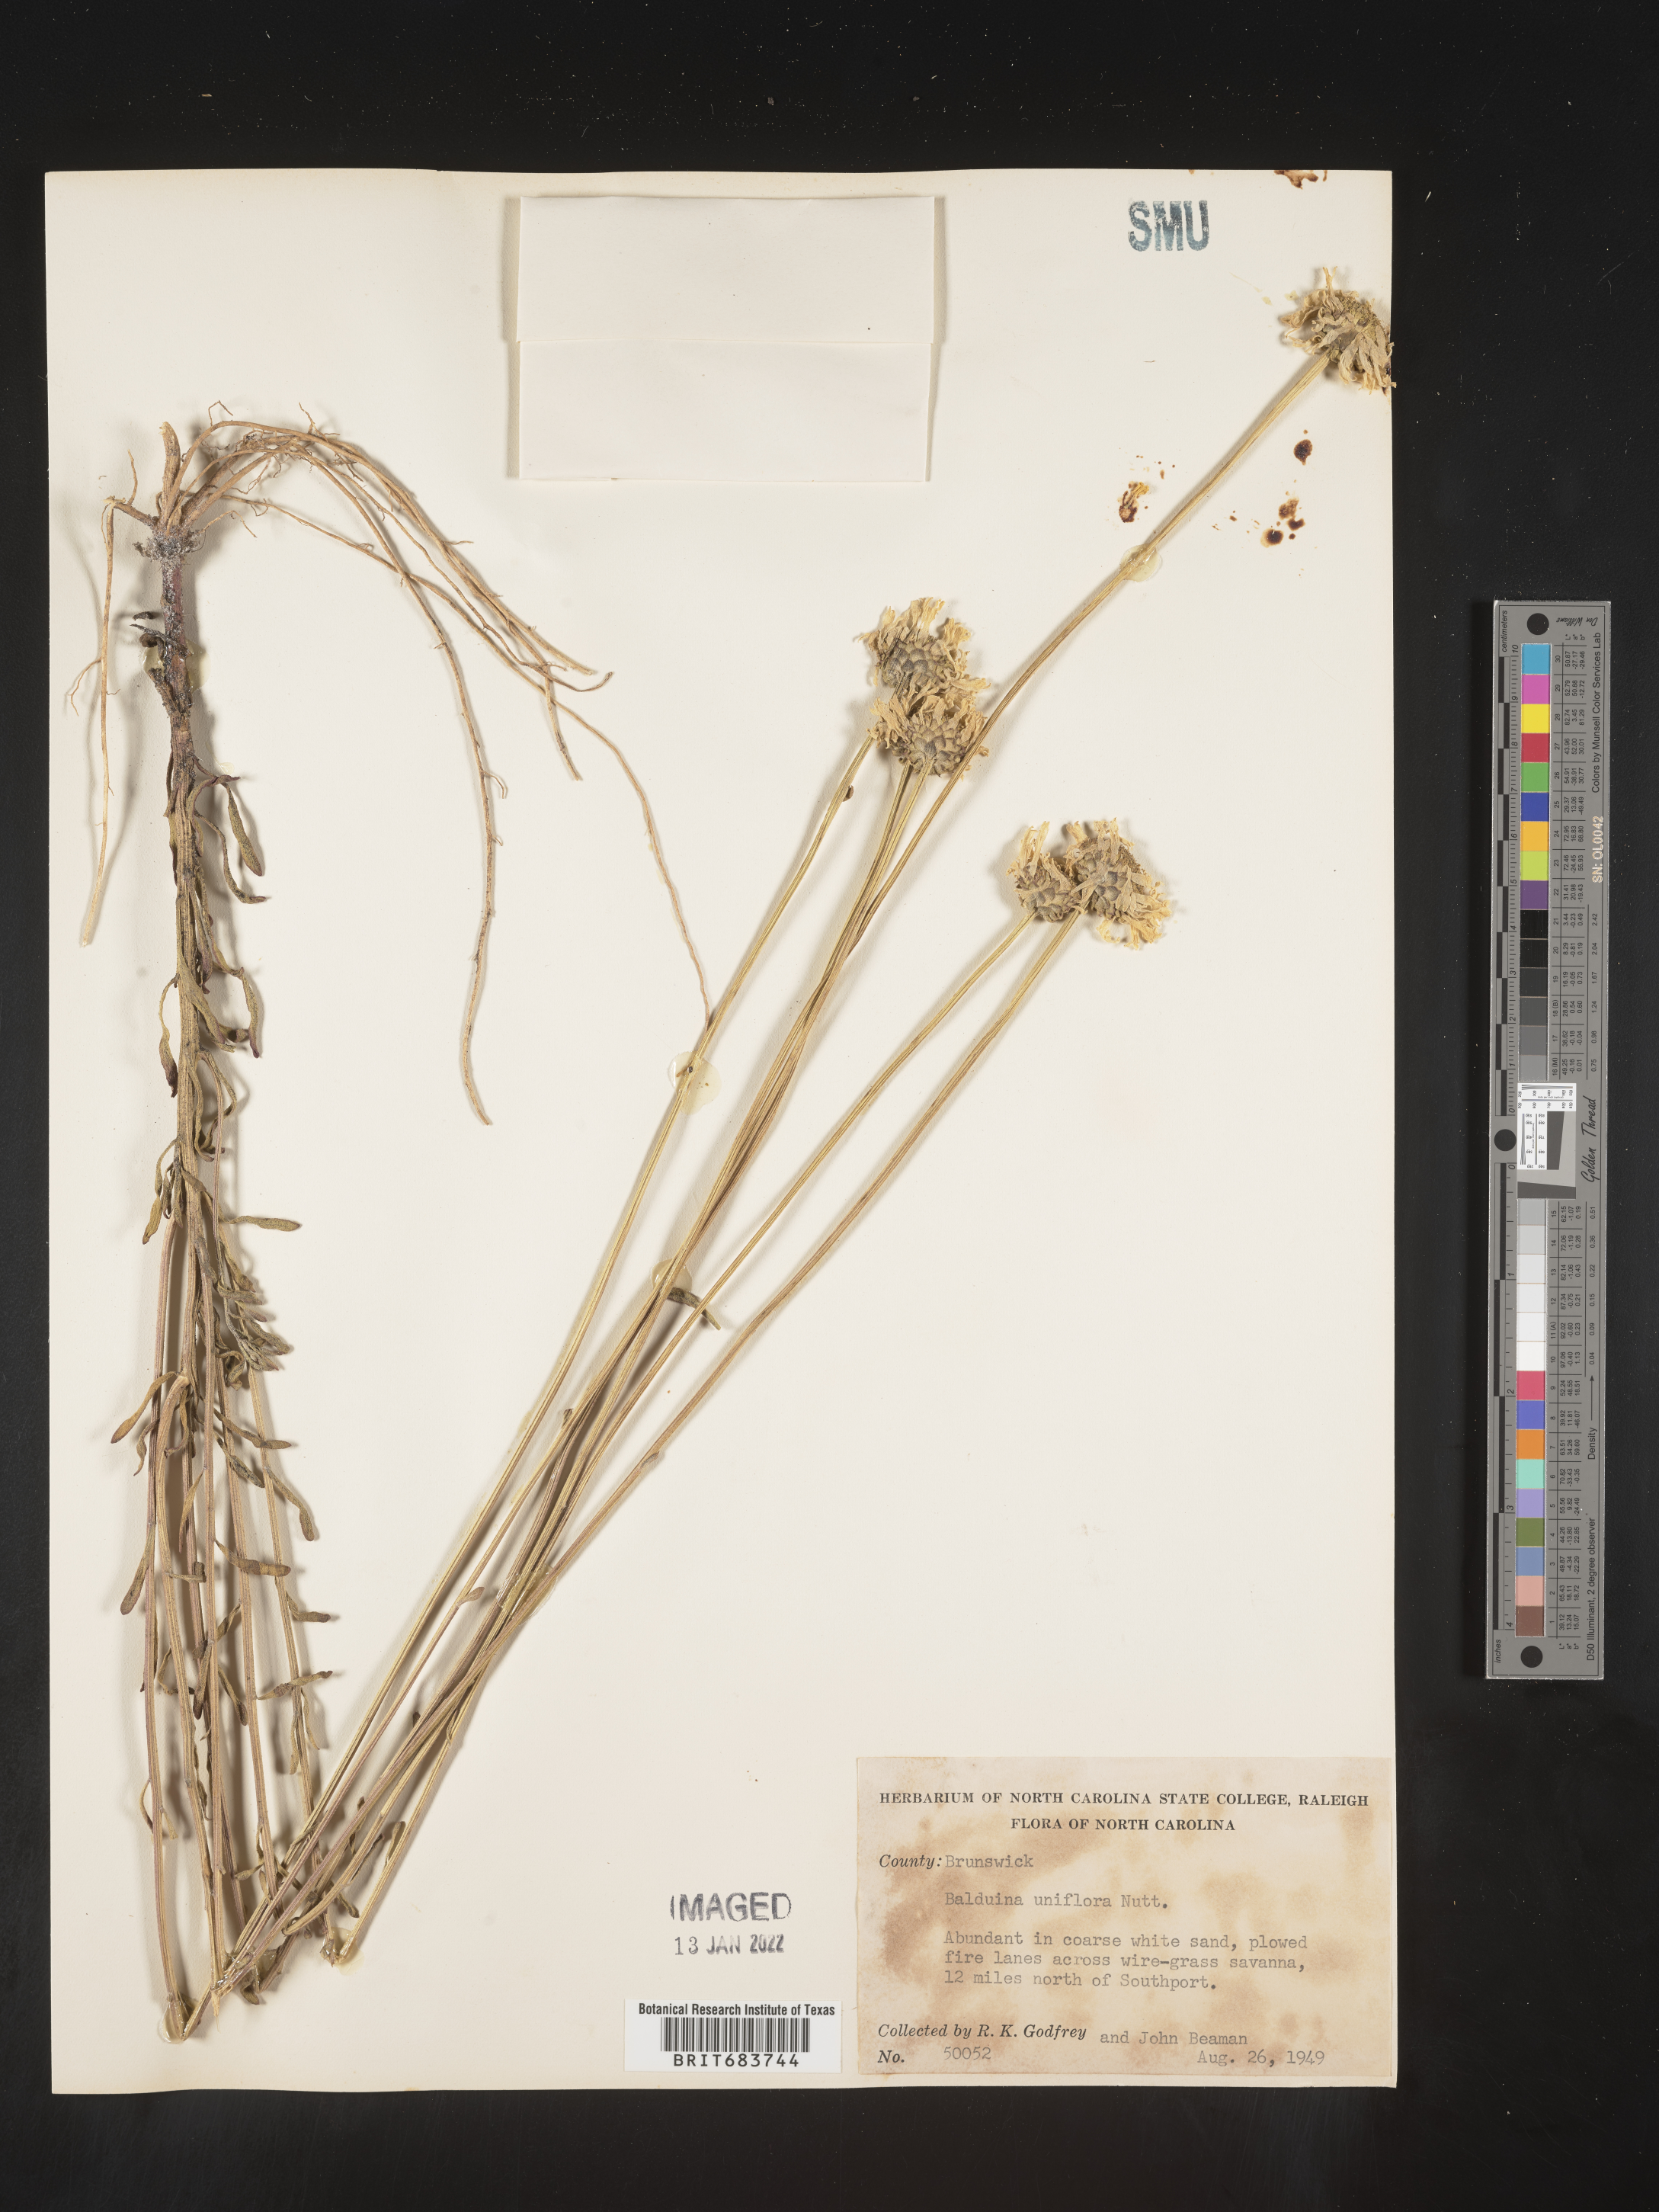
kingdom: Plantae
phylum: Tracheophyta
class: Magnoliopsida
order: Asterales
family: Asteraceae
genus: Balduina
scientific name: Balduina uniflora
